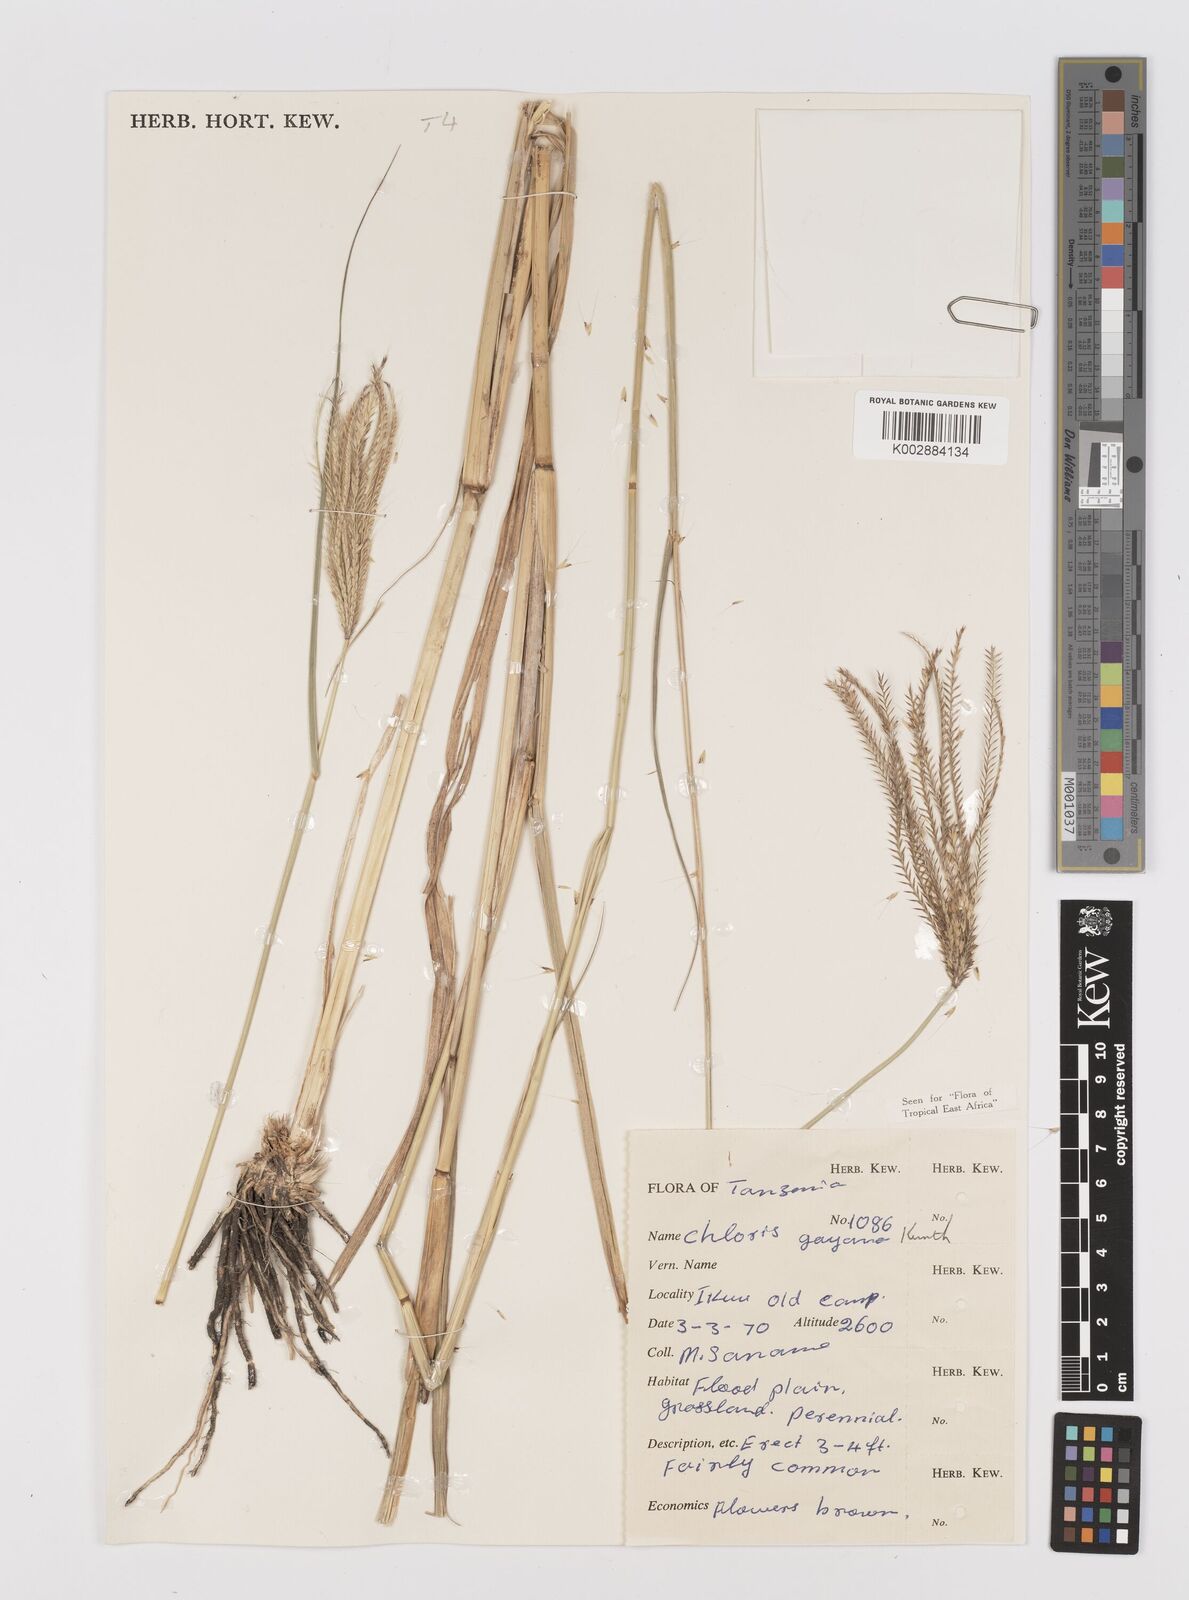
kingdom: Plantae
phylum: Tracheophyta
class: Liliopsida
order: Poales
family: Poaceae
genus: Chloris
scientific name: Chloris gayana
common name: Rhodes grass
